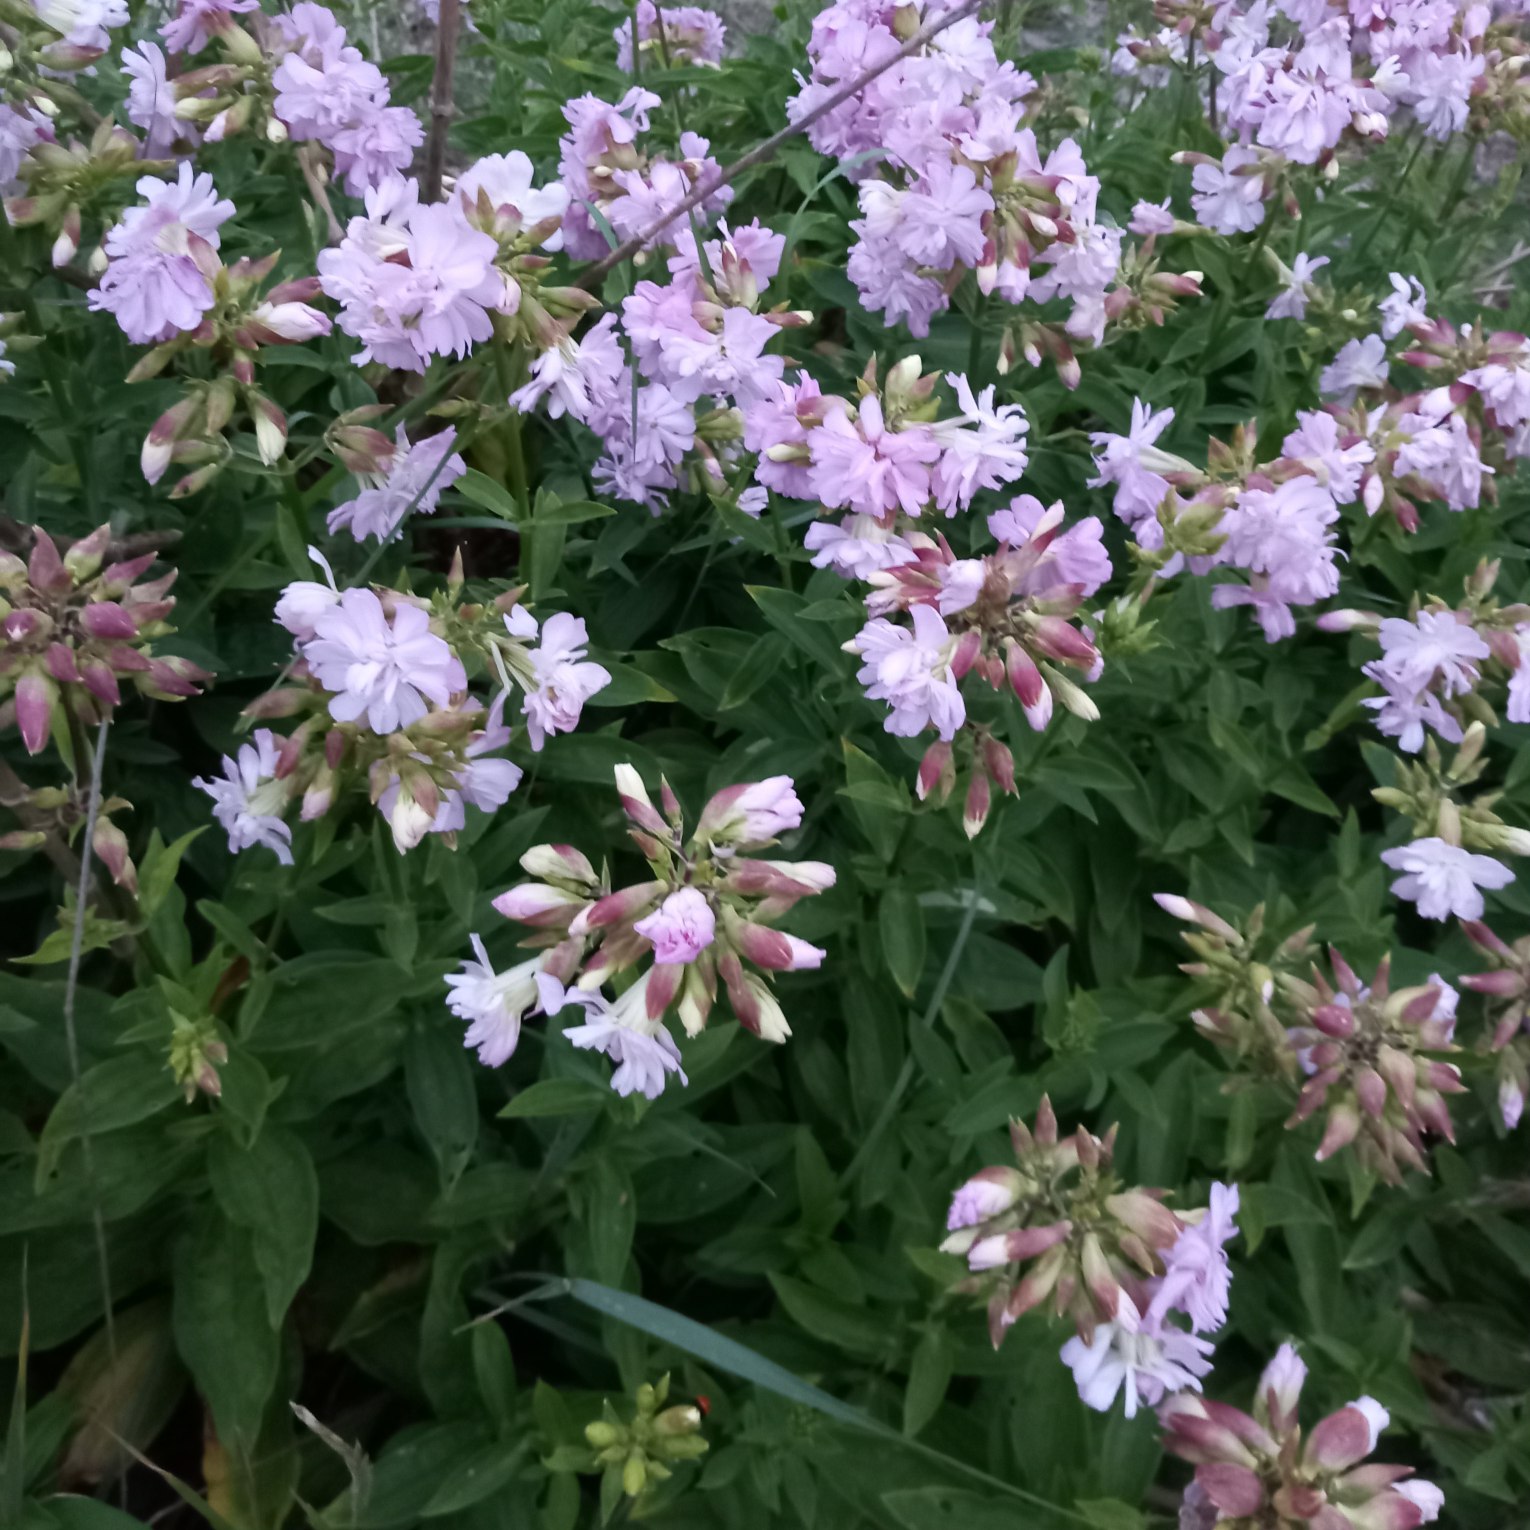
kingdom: Plantae
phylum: Tracheophyta
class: Magnoliopsida
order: Caryophyllales
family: Caryophyllaceae
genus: Saponaria
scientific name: Saponaria officinalis
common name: Sæbeurt
